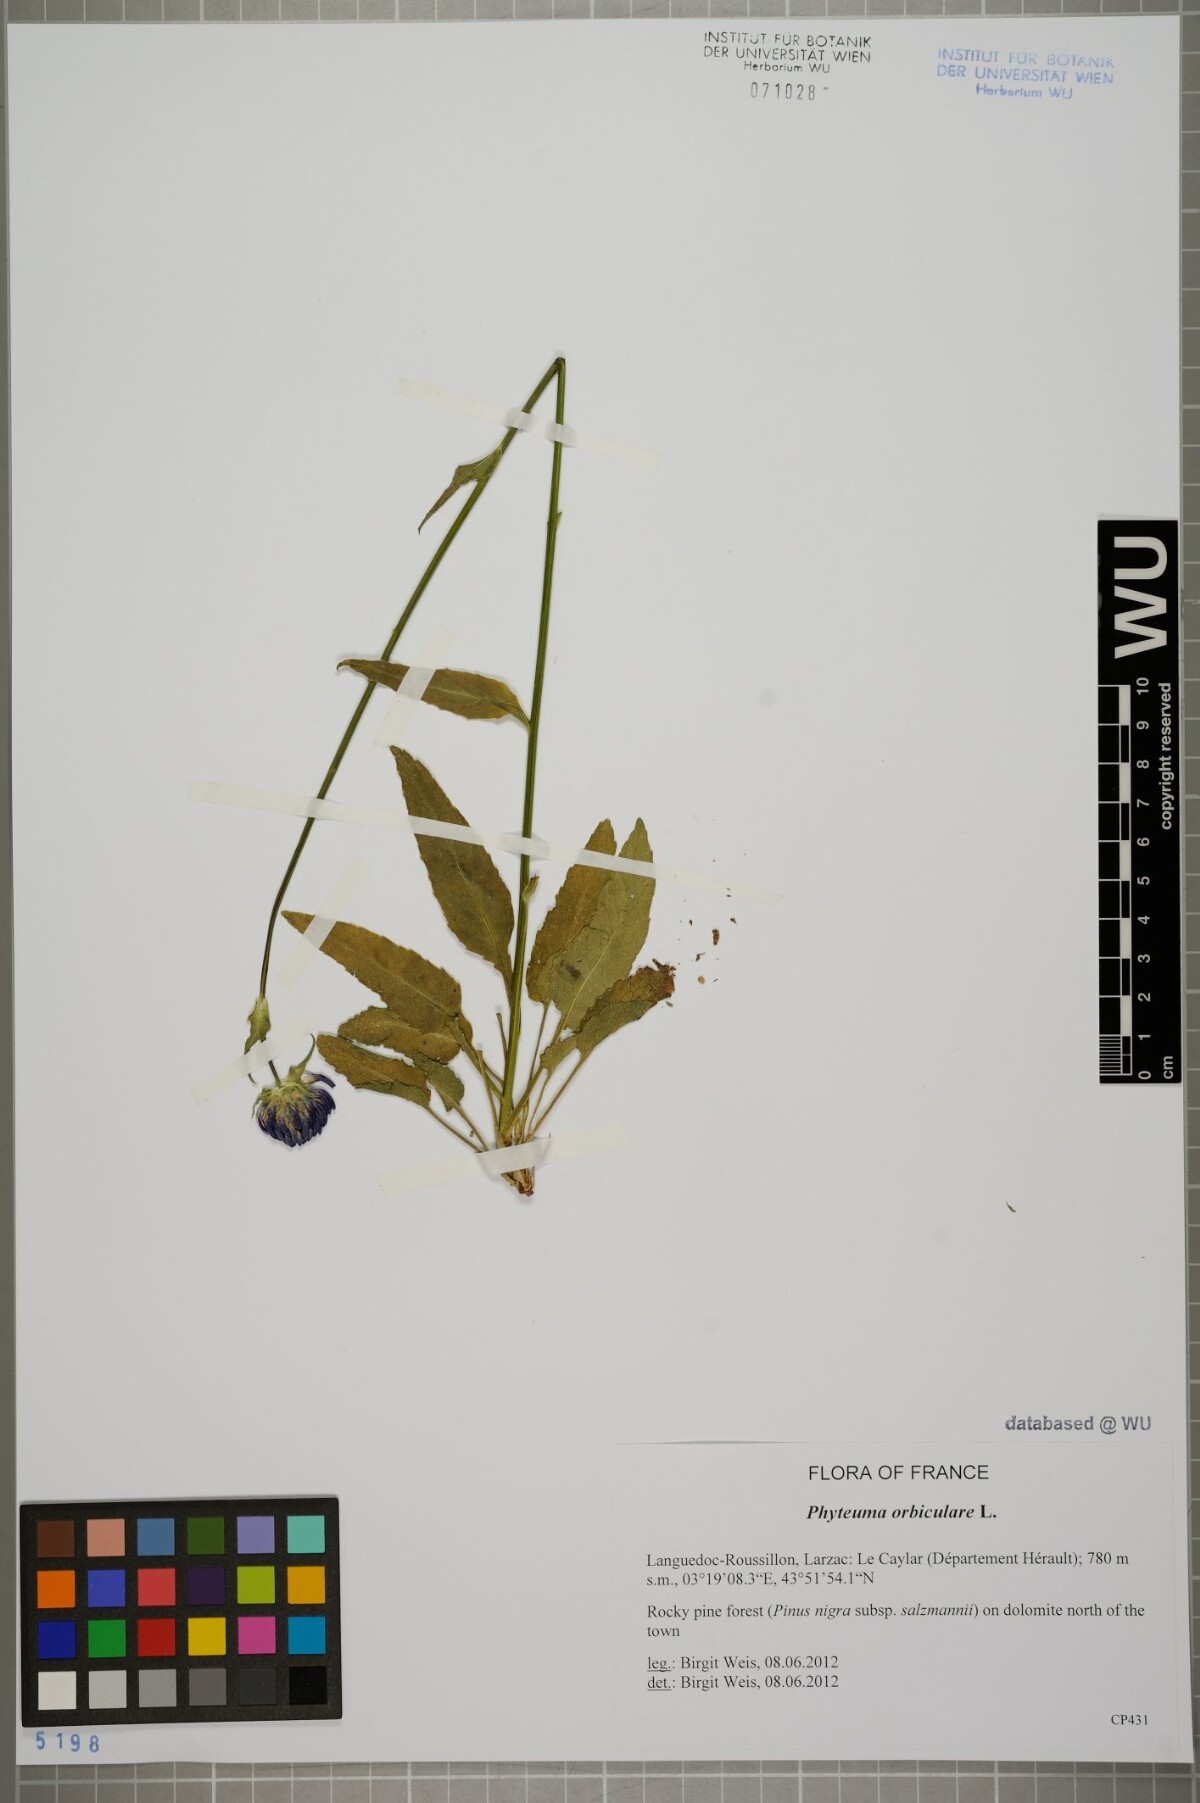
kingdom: Plantae
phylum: Tracheophyta
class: Magnoliopsida
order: Asterales
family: Campanulaceae
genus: Phyteuma
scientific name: Phyteuma orbiculare
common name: Round-headed rampion
